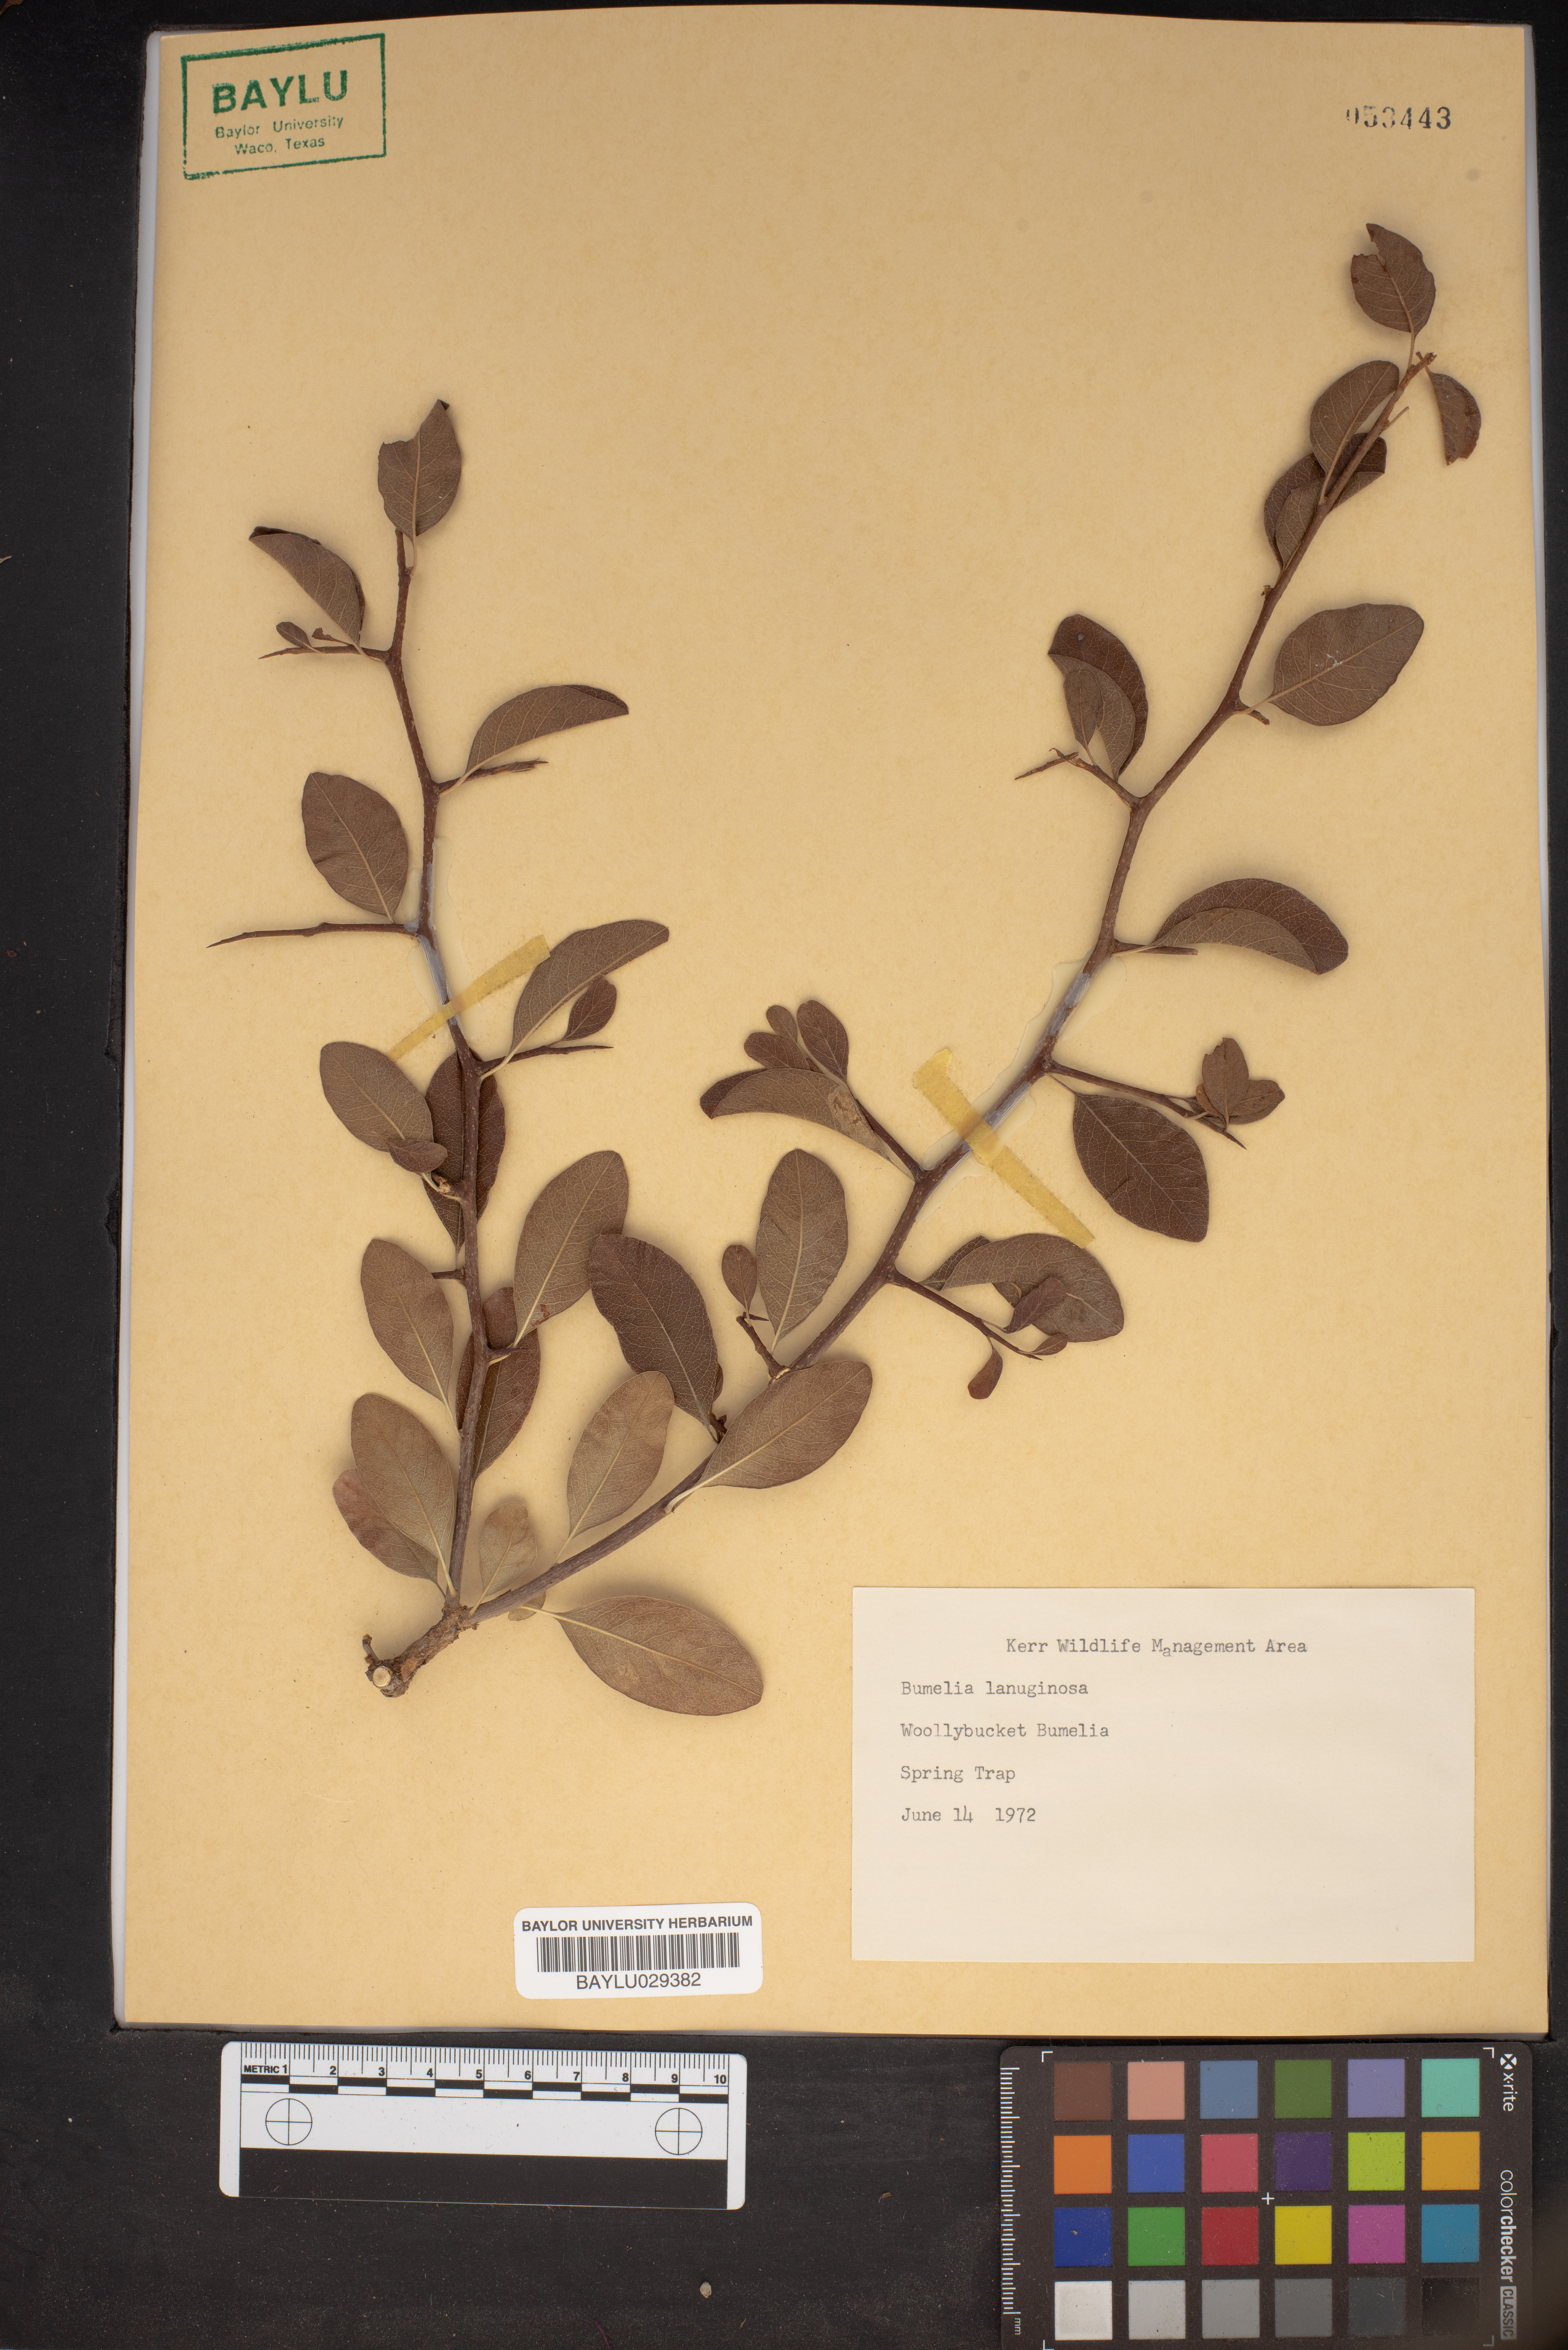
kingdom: Plantae
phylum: Tracheophyta
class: Magnoliopsida
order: Ericales
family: Sapotaceae
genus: Sideroxylon
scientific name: Sideroxylon lanuginosum
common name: Chittamwood
